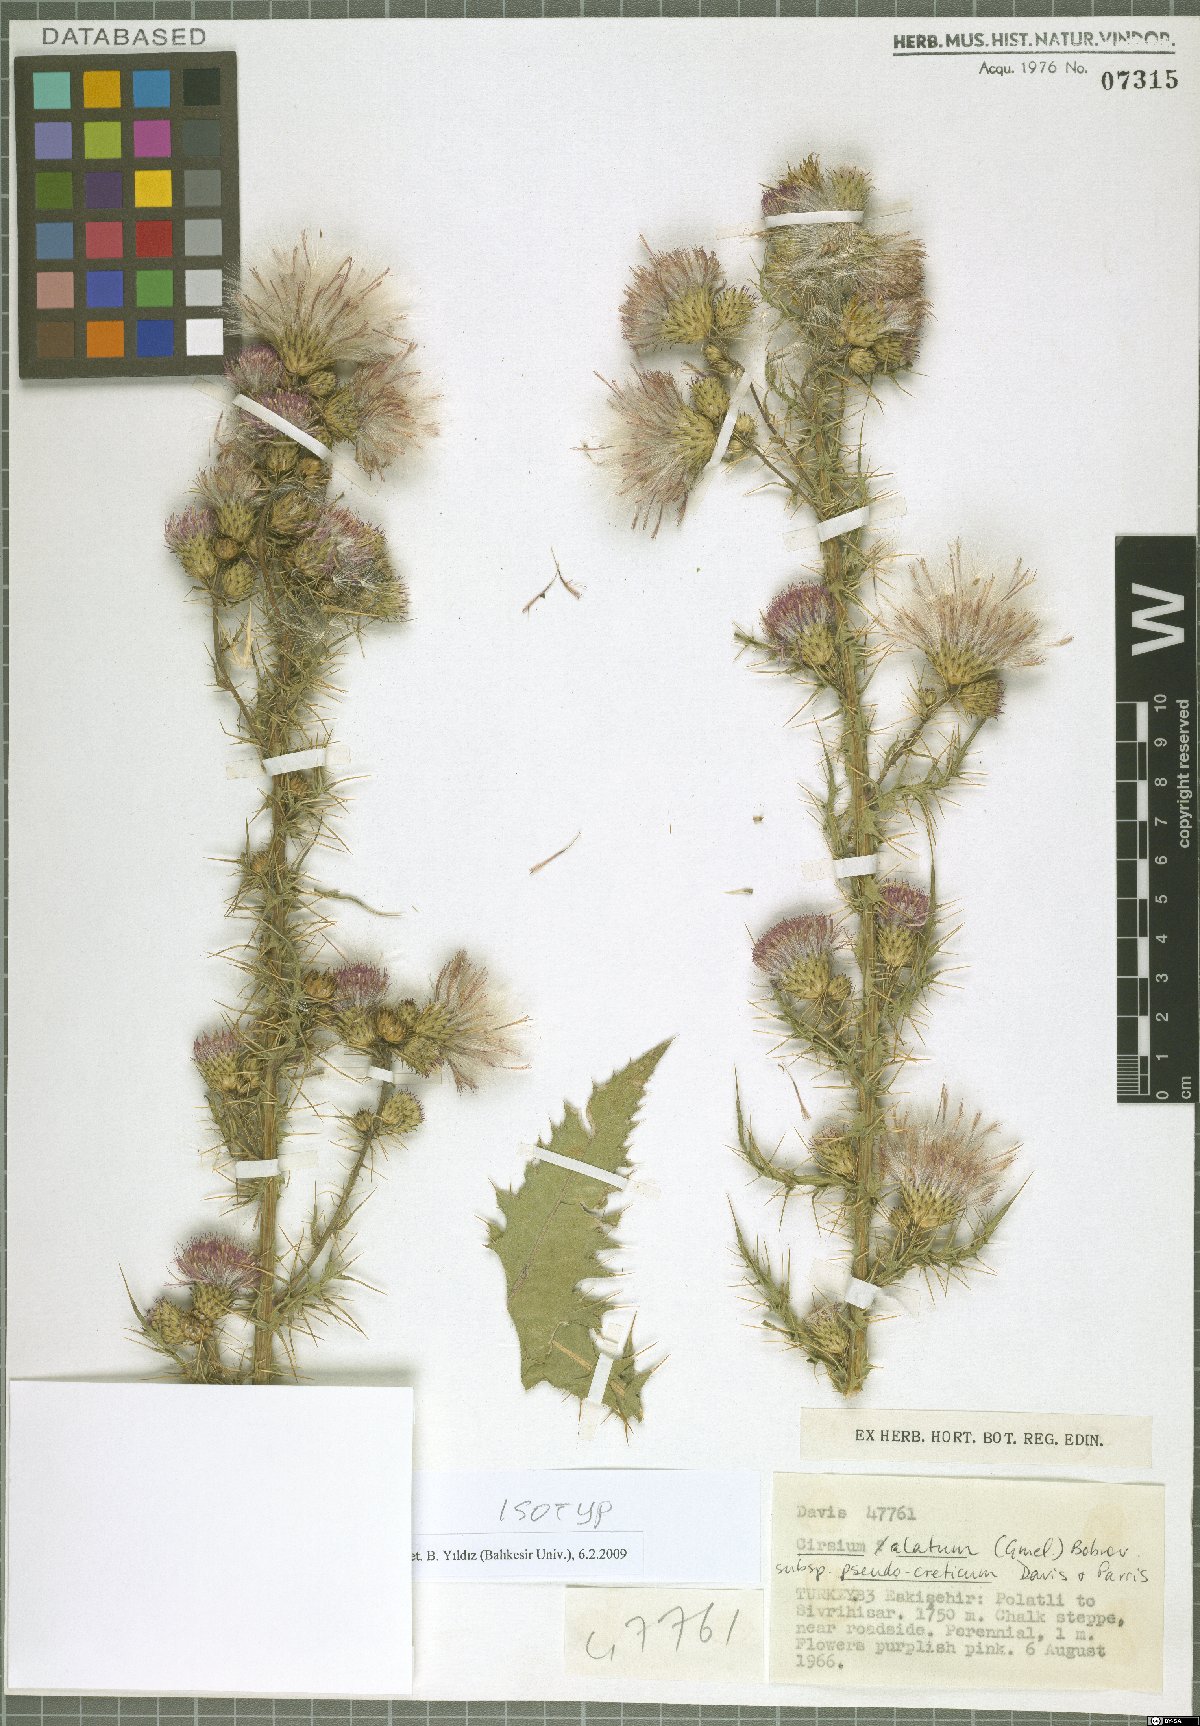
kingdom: Plantae
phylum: Tracheophyta
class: Magnoliopsida
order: Asterales
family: Asteraceae
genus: Cirsium
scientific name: Cirsium pseudocreticum
